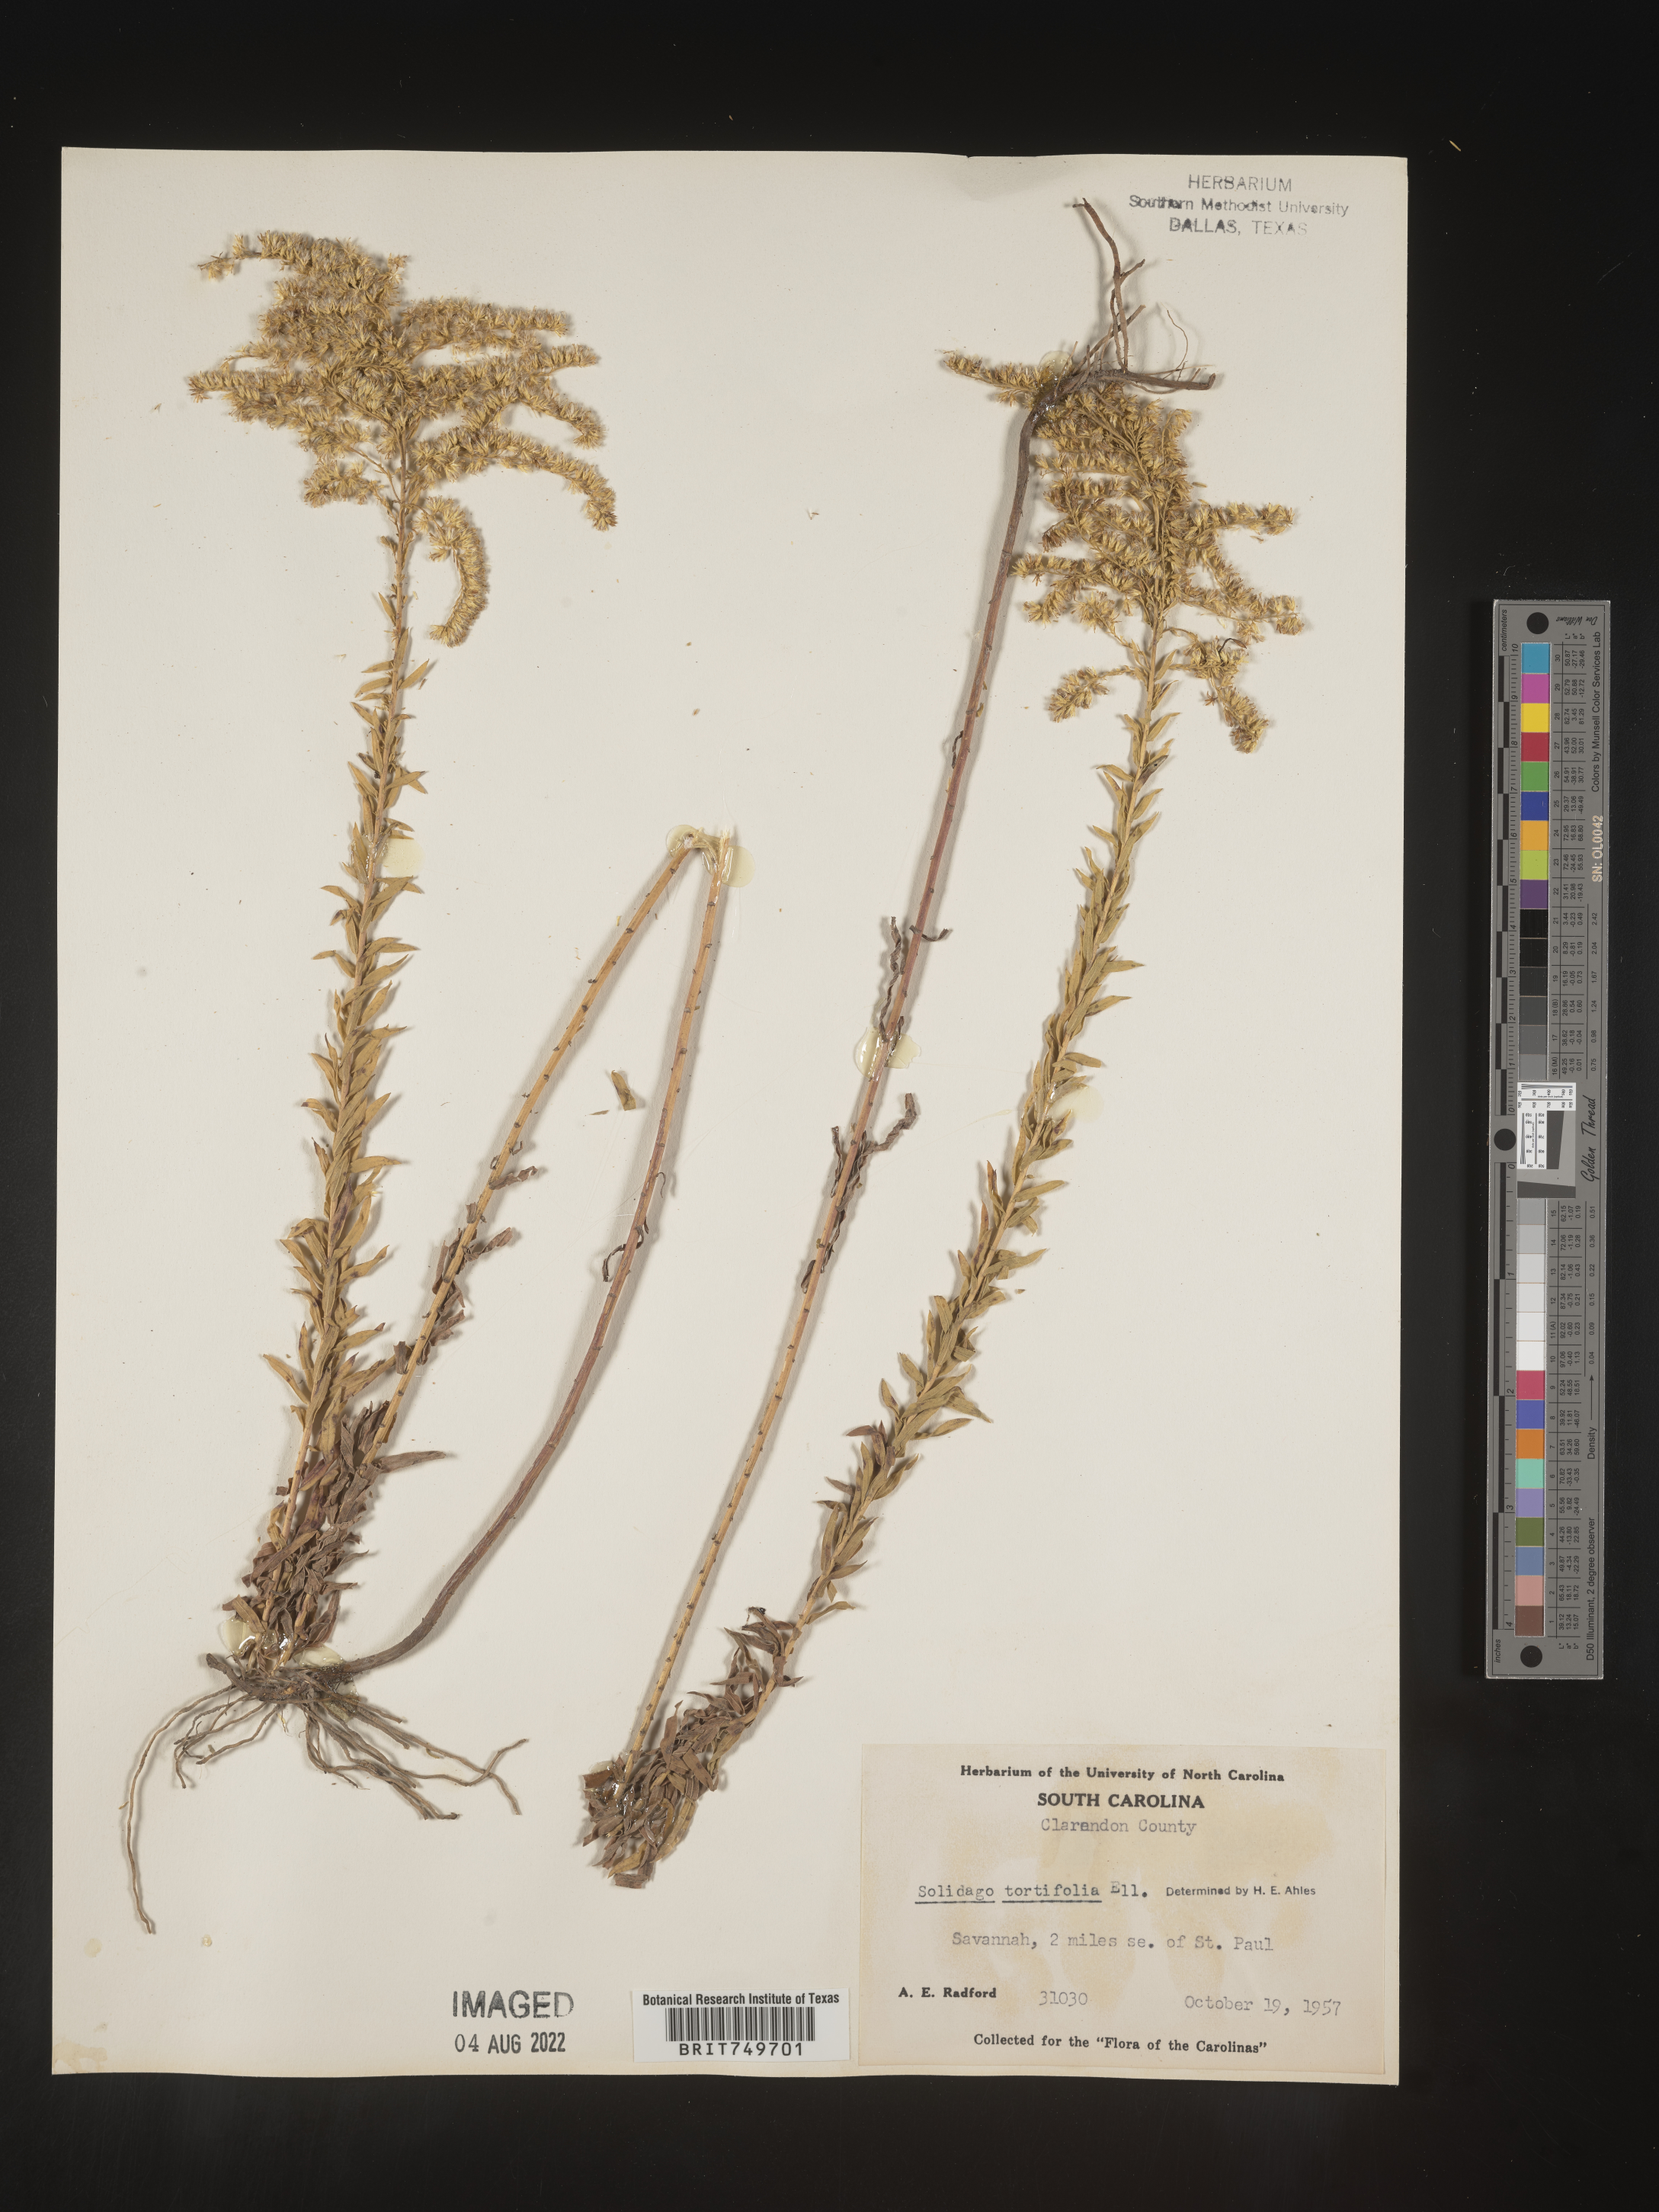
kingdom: Plantae
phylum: Tracheophyta
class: Magnoliopsida
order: Asterales
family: Asteraceae
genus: Solidago
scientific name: Solidago tortifolia
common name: Twisted-leaf goldenrod
